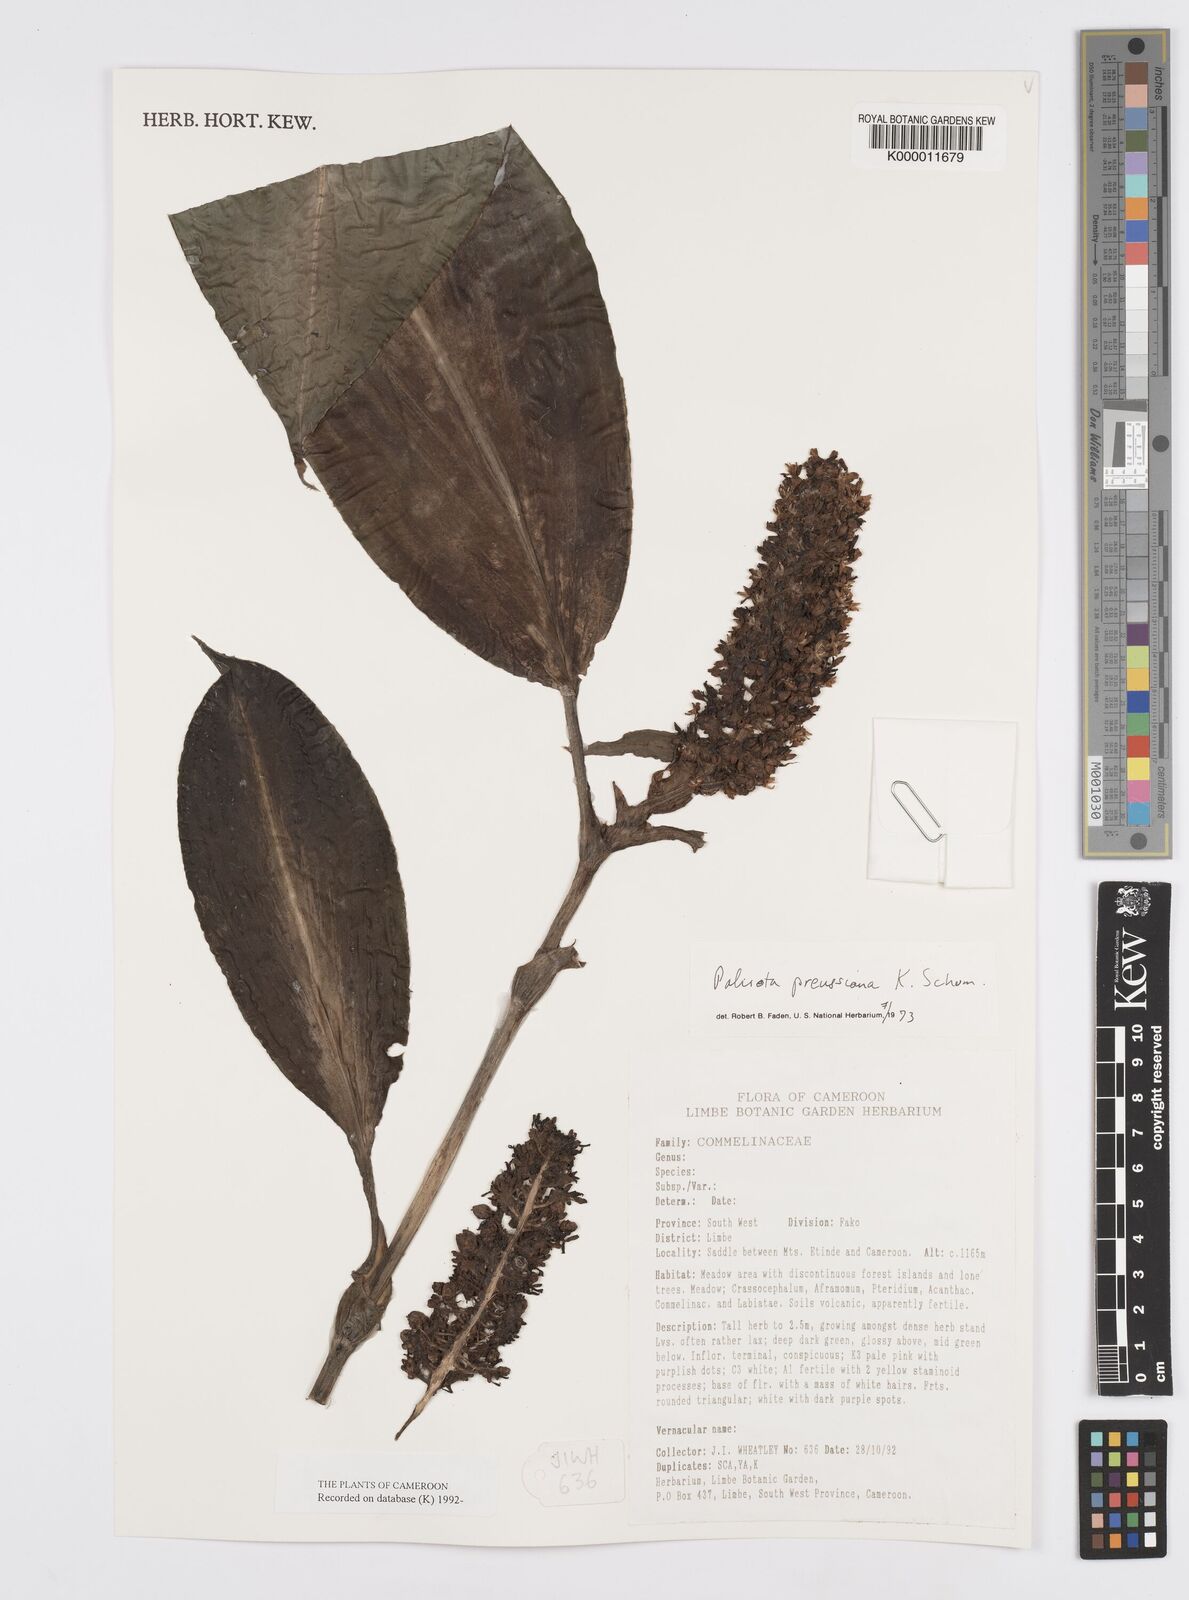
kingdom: Plantae
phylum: Tracheophyta
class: Liliopsida
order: Commelinales
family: Commelinaceae
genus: Palisota
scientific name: Palisota preussiana
